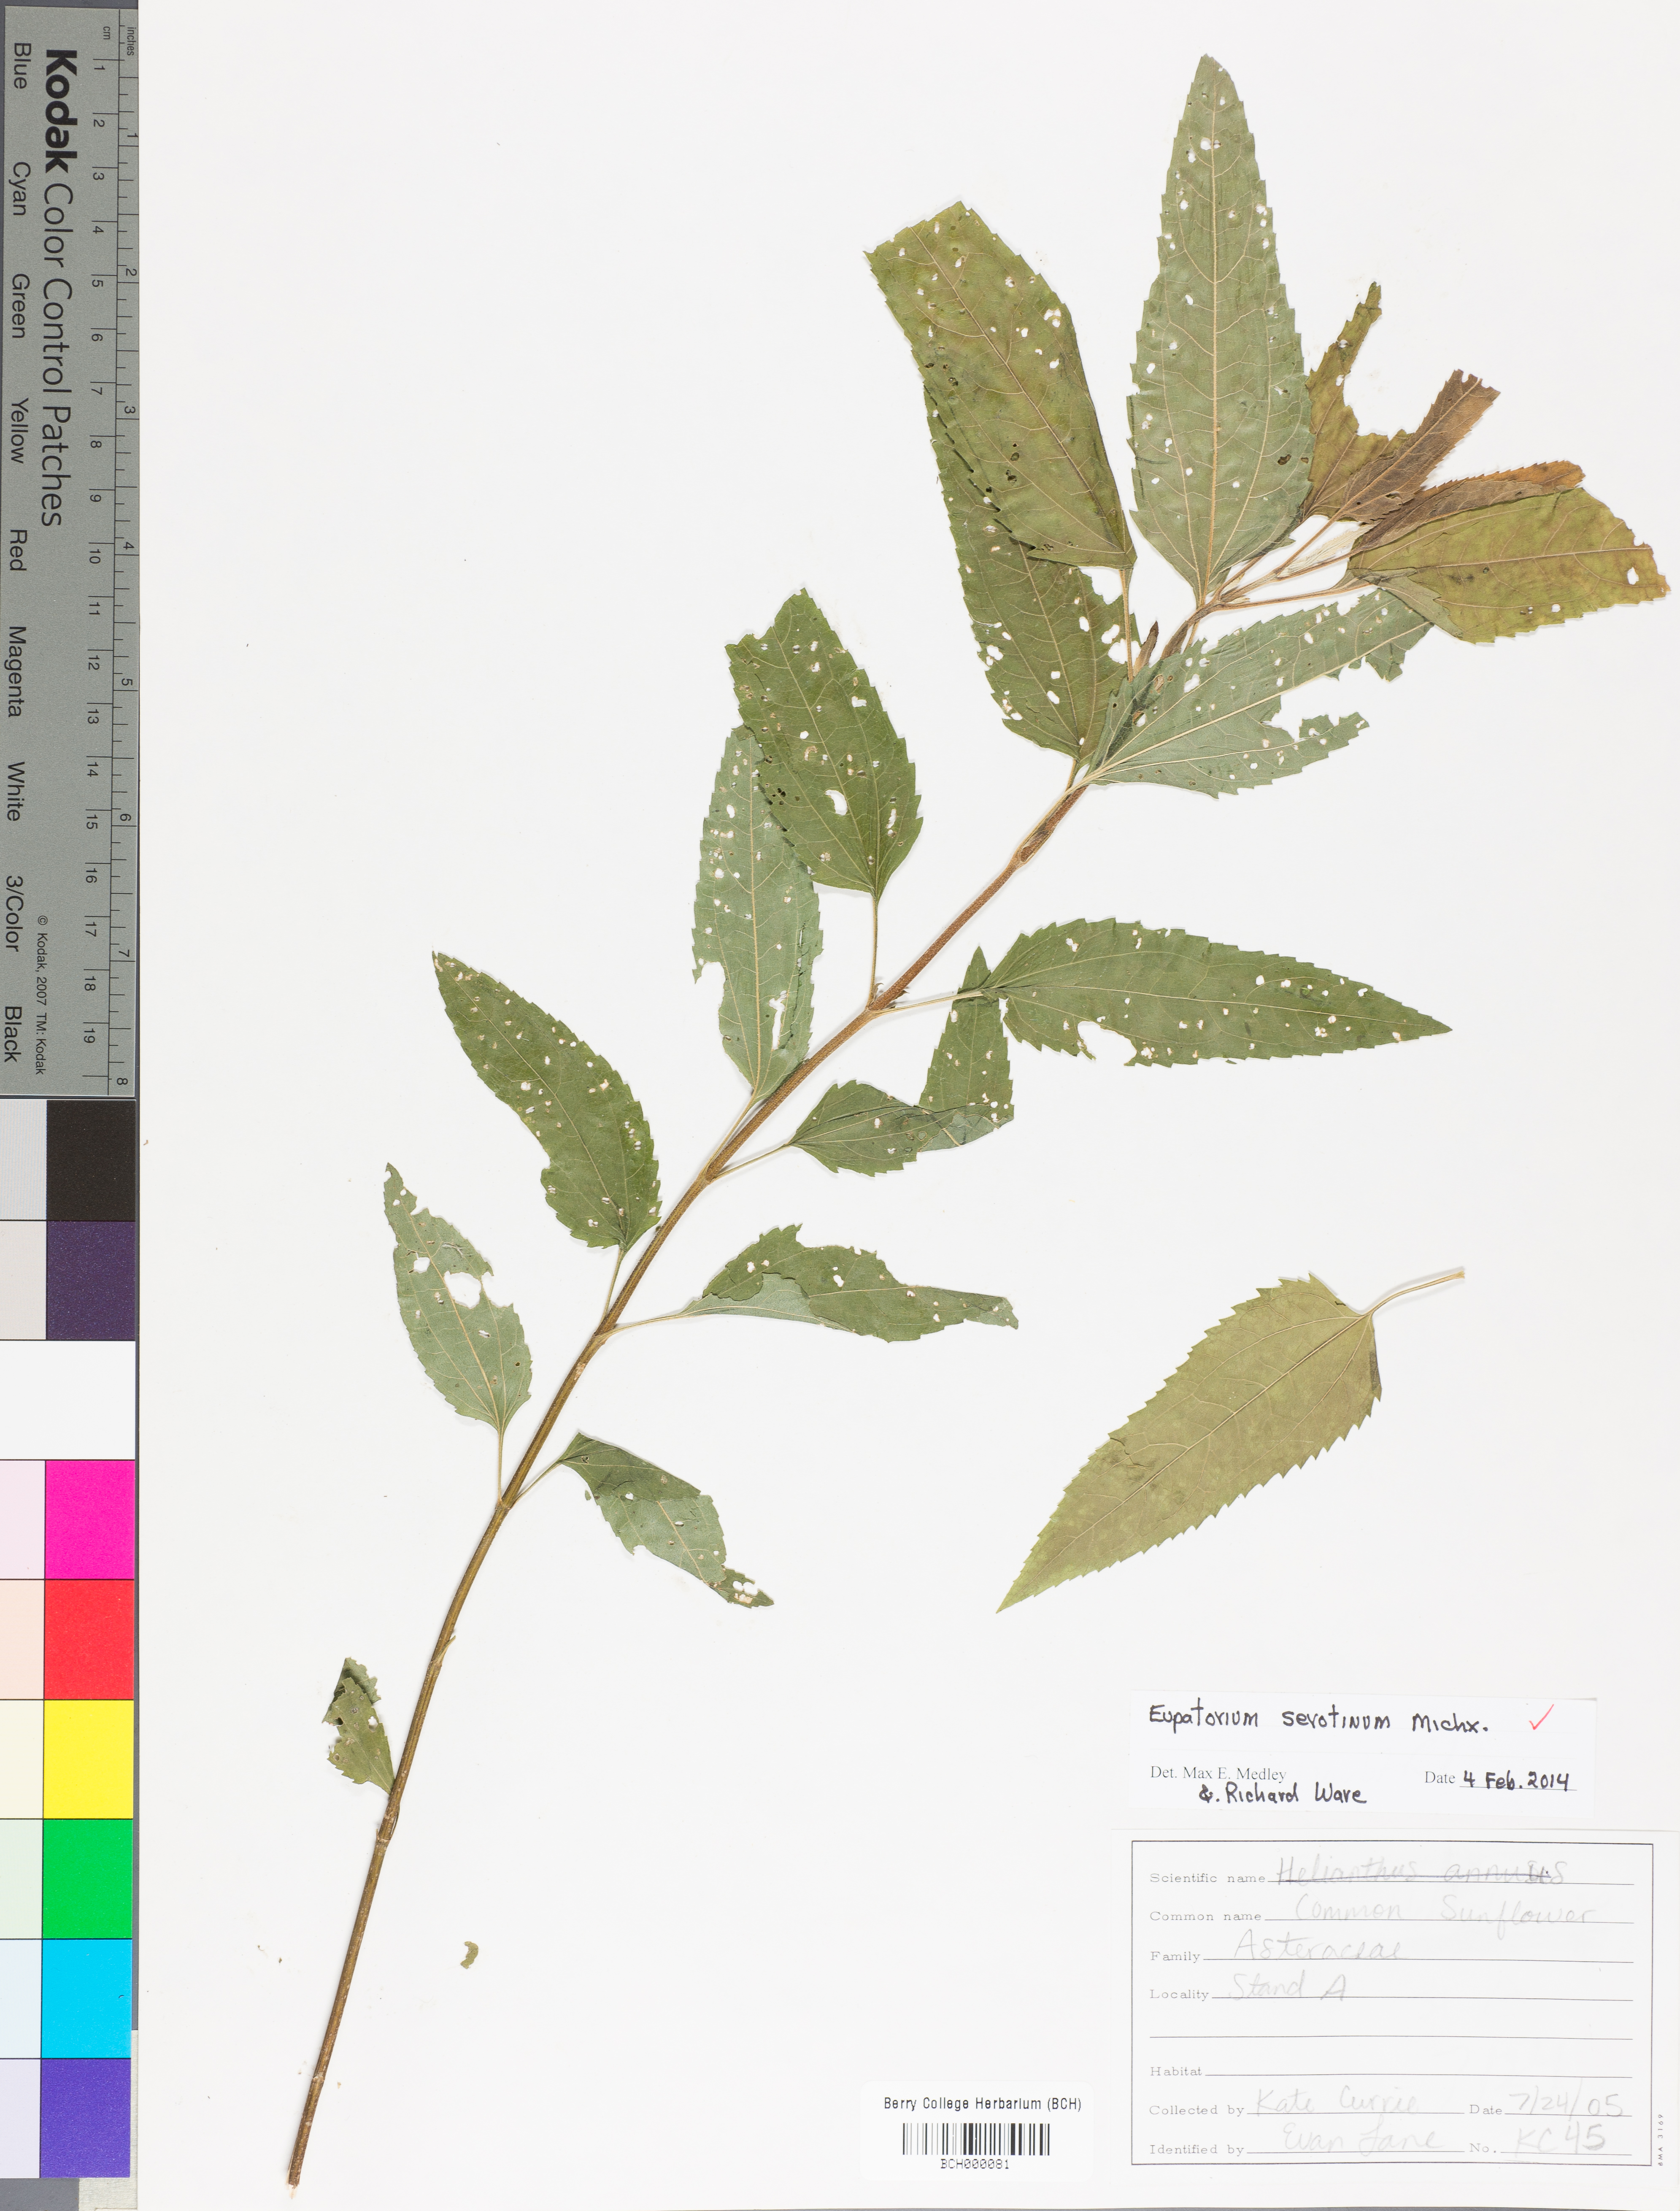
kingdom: Plantae
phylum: Tracheophyta
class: Magnoliopsida
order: Asterales
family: Asteraceae
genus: Eupatorium
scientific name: Eupatorium serotinum
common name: Late boneset
